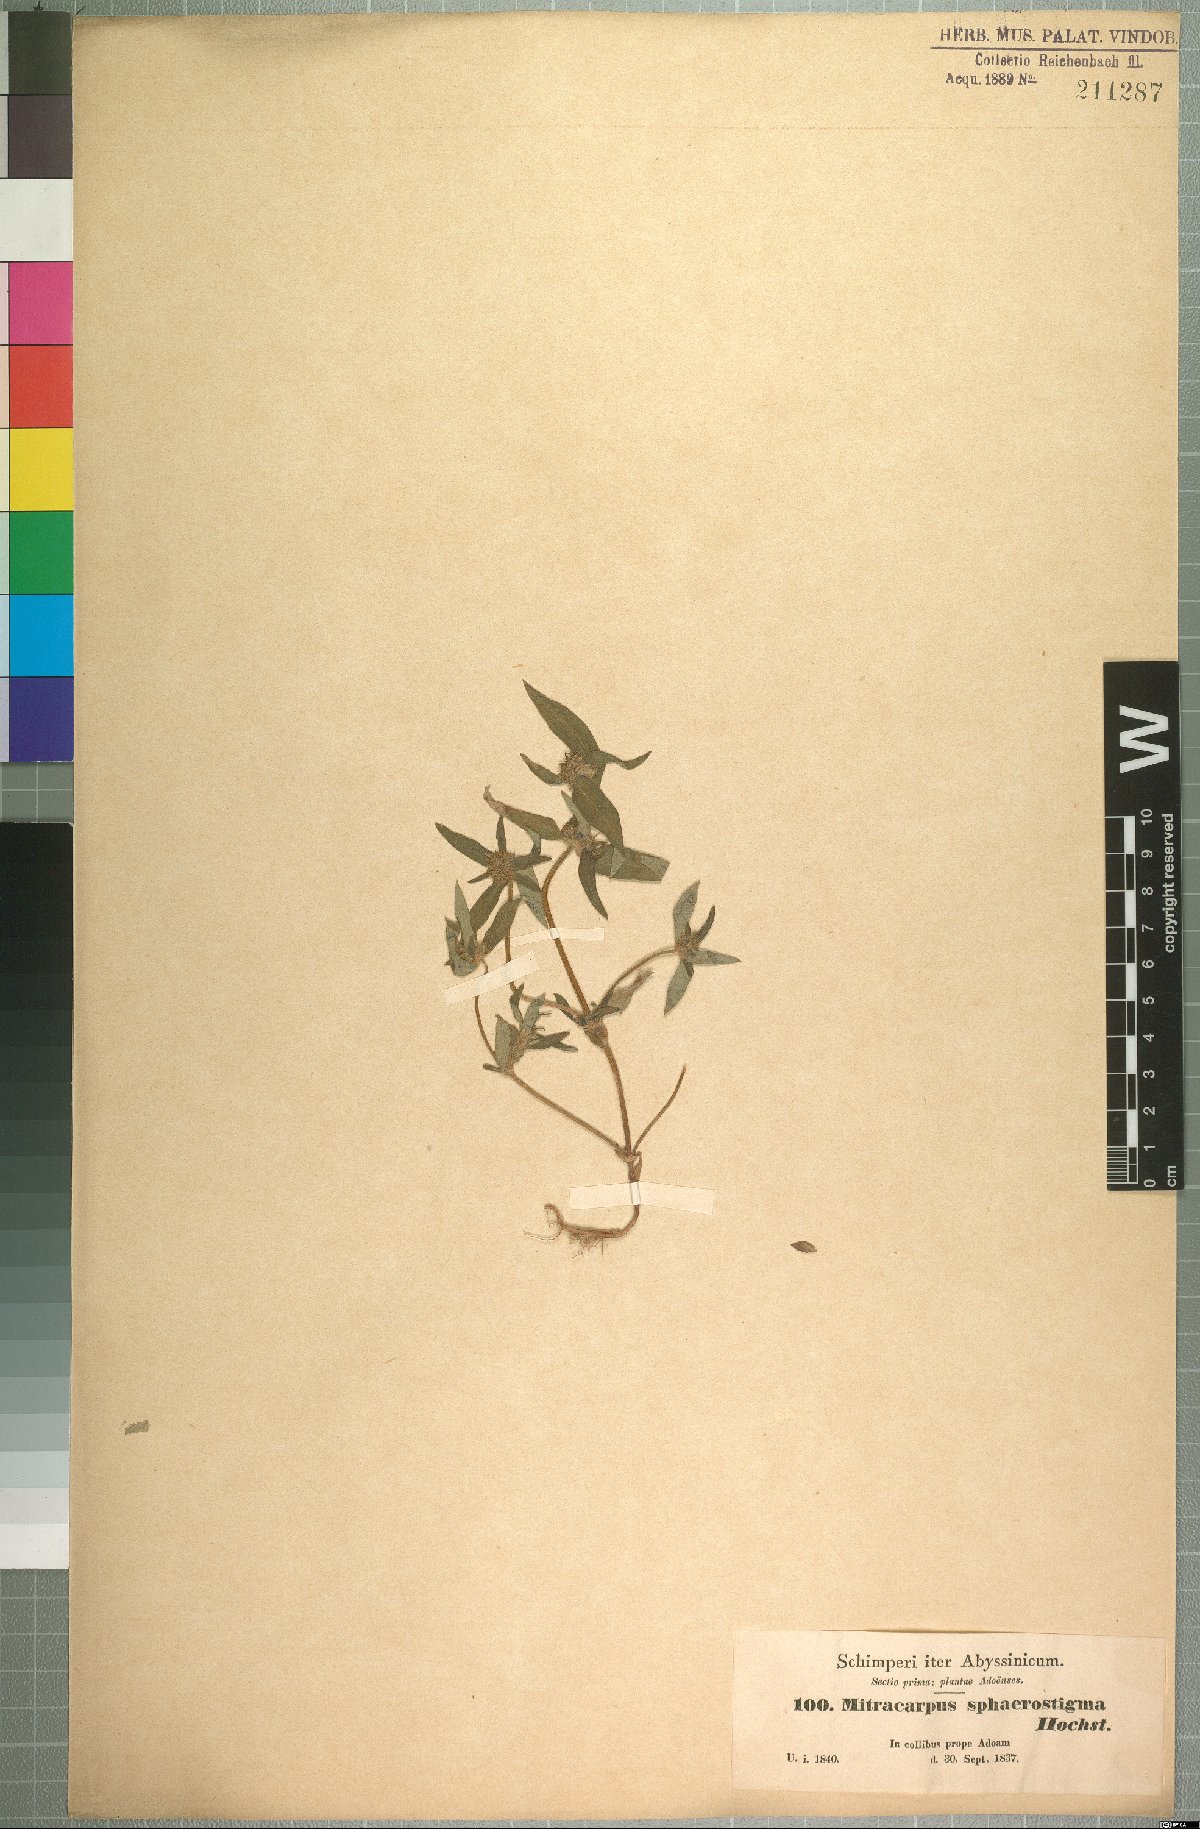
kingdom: Plantae
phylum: Tracheophyta
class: Magnoliopsida
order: Gentianales
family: Rubiaceae
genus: Spermacoce
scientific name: Spermacoce sphaerostigma
